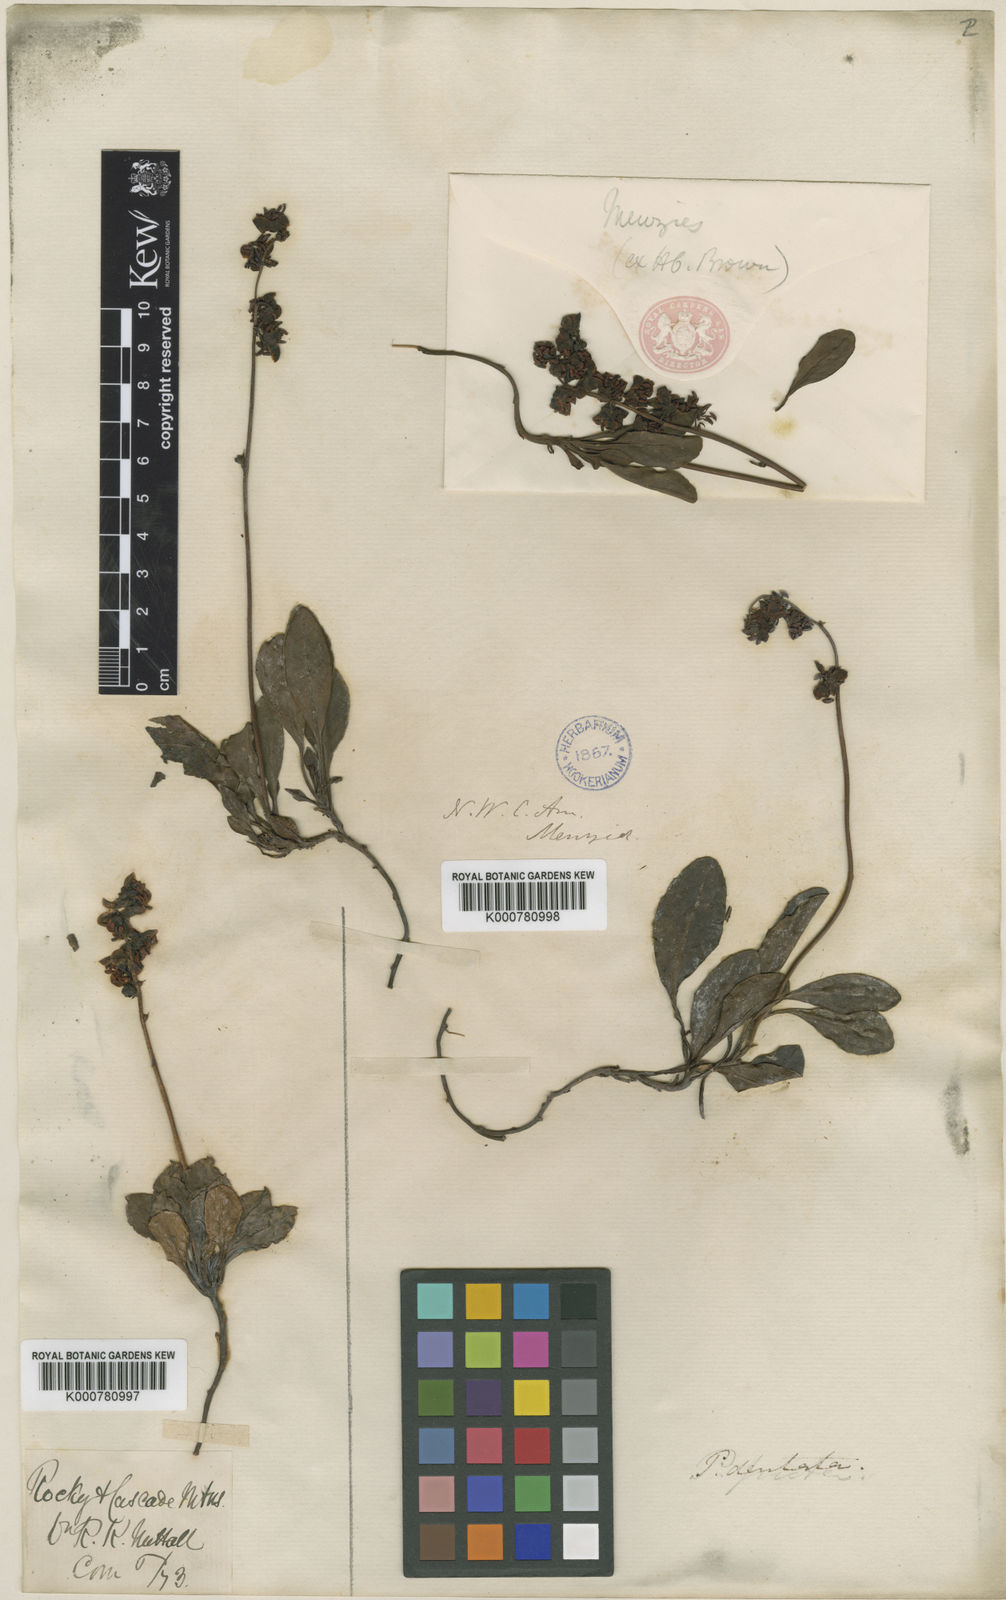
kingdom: Plantae
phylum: Tracheophyta
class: Magnoliopsida
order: Ericales
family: Ericaceae
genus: Pyrola
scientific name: Pyrola dentata
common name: Tooth-leaved wintergreen
